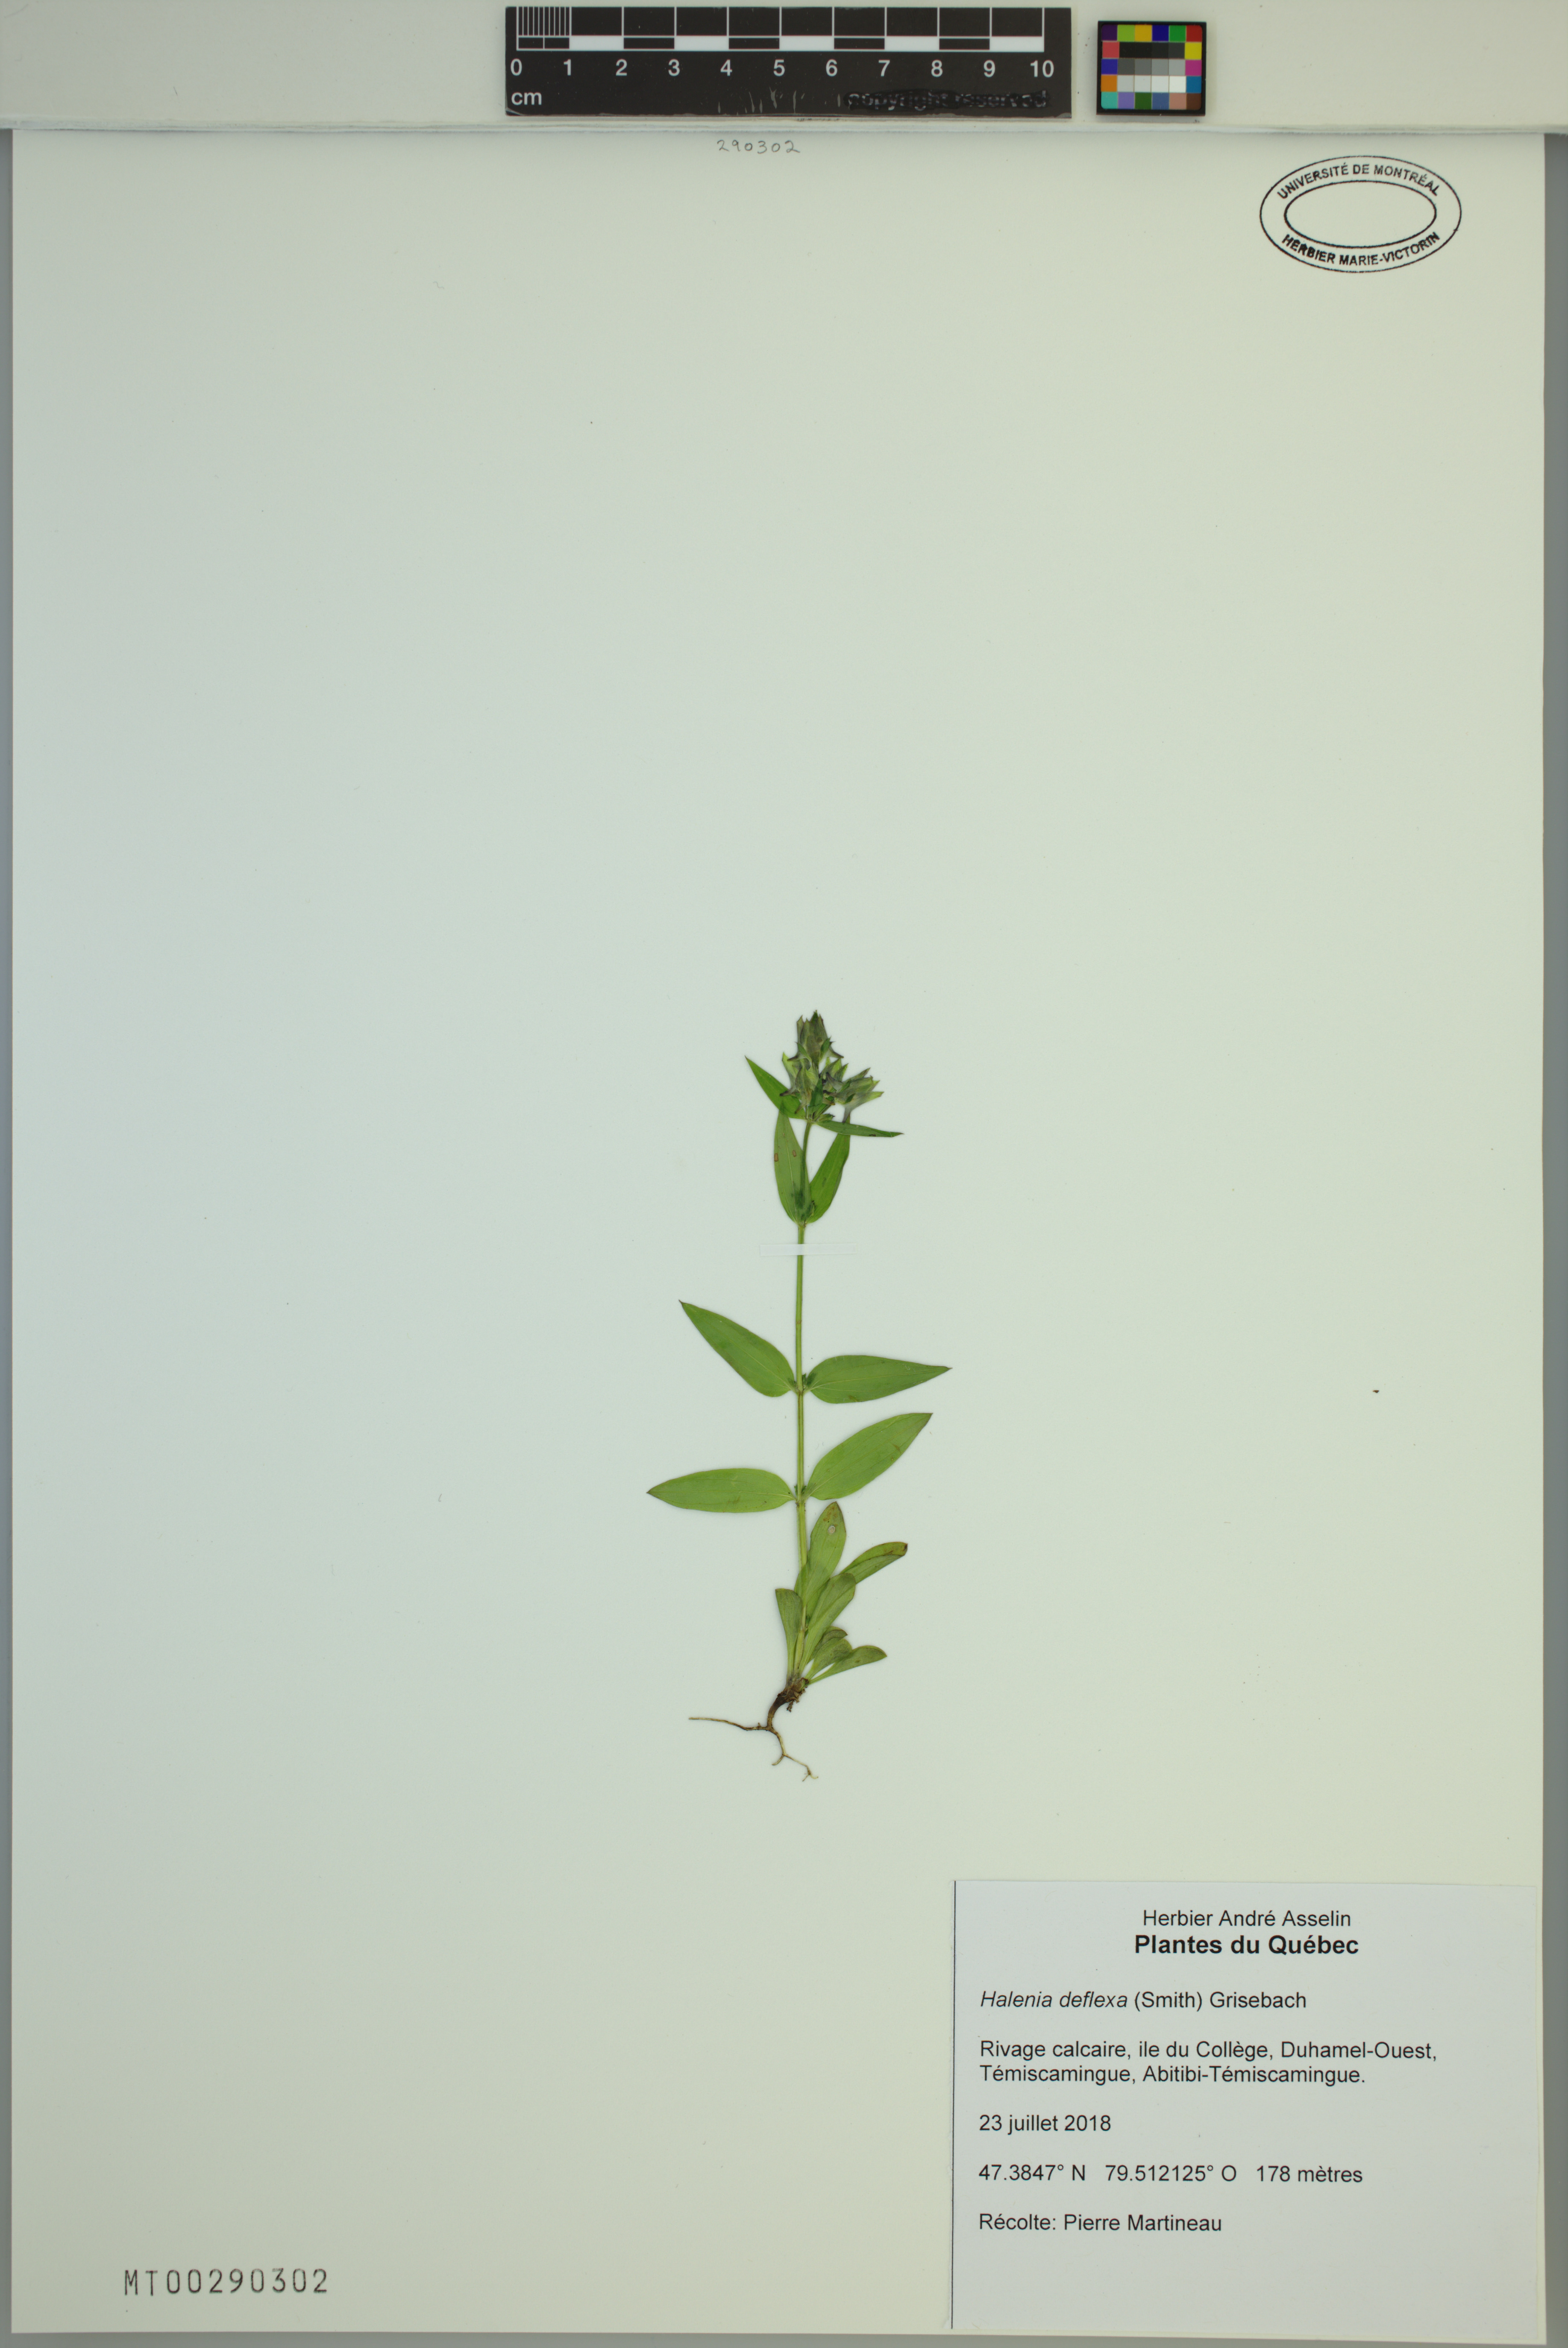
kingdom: Plantae
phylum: Tracheophyta
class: Magnoliopsida
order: Gentianales
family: Gentianaceae
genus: Halenia
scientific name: Halenia deflexa
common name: American spurred gentian
